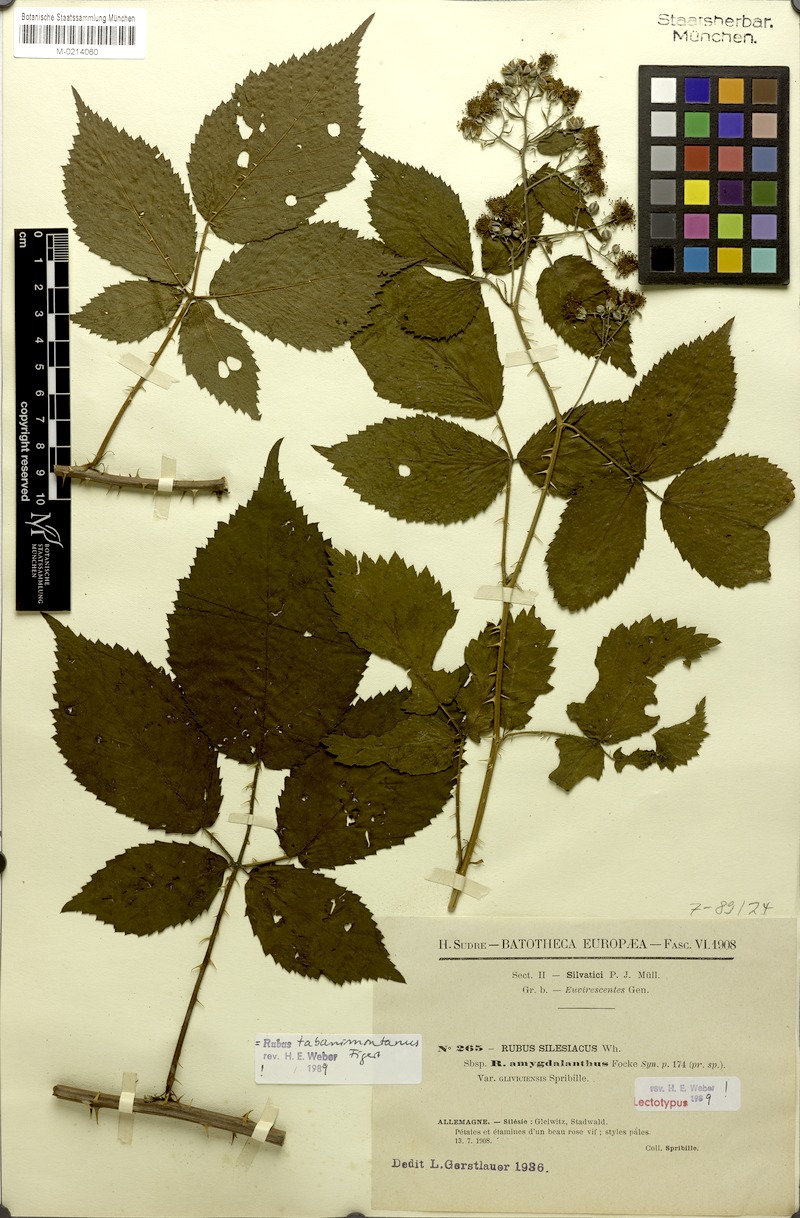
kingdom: Plantae
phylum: Tracheophyta
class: Magnoliopsida
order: Rosales
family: Rosaceae
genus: Rubus
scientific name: Rubus amygdalanthus
